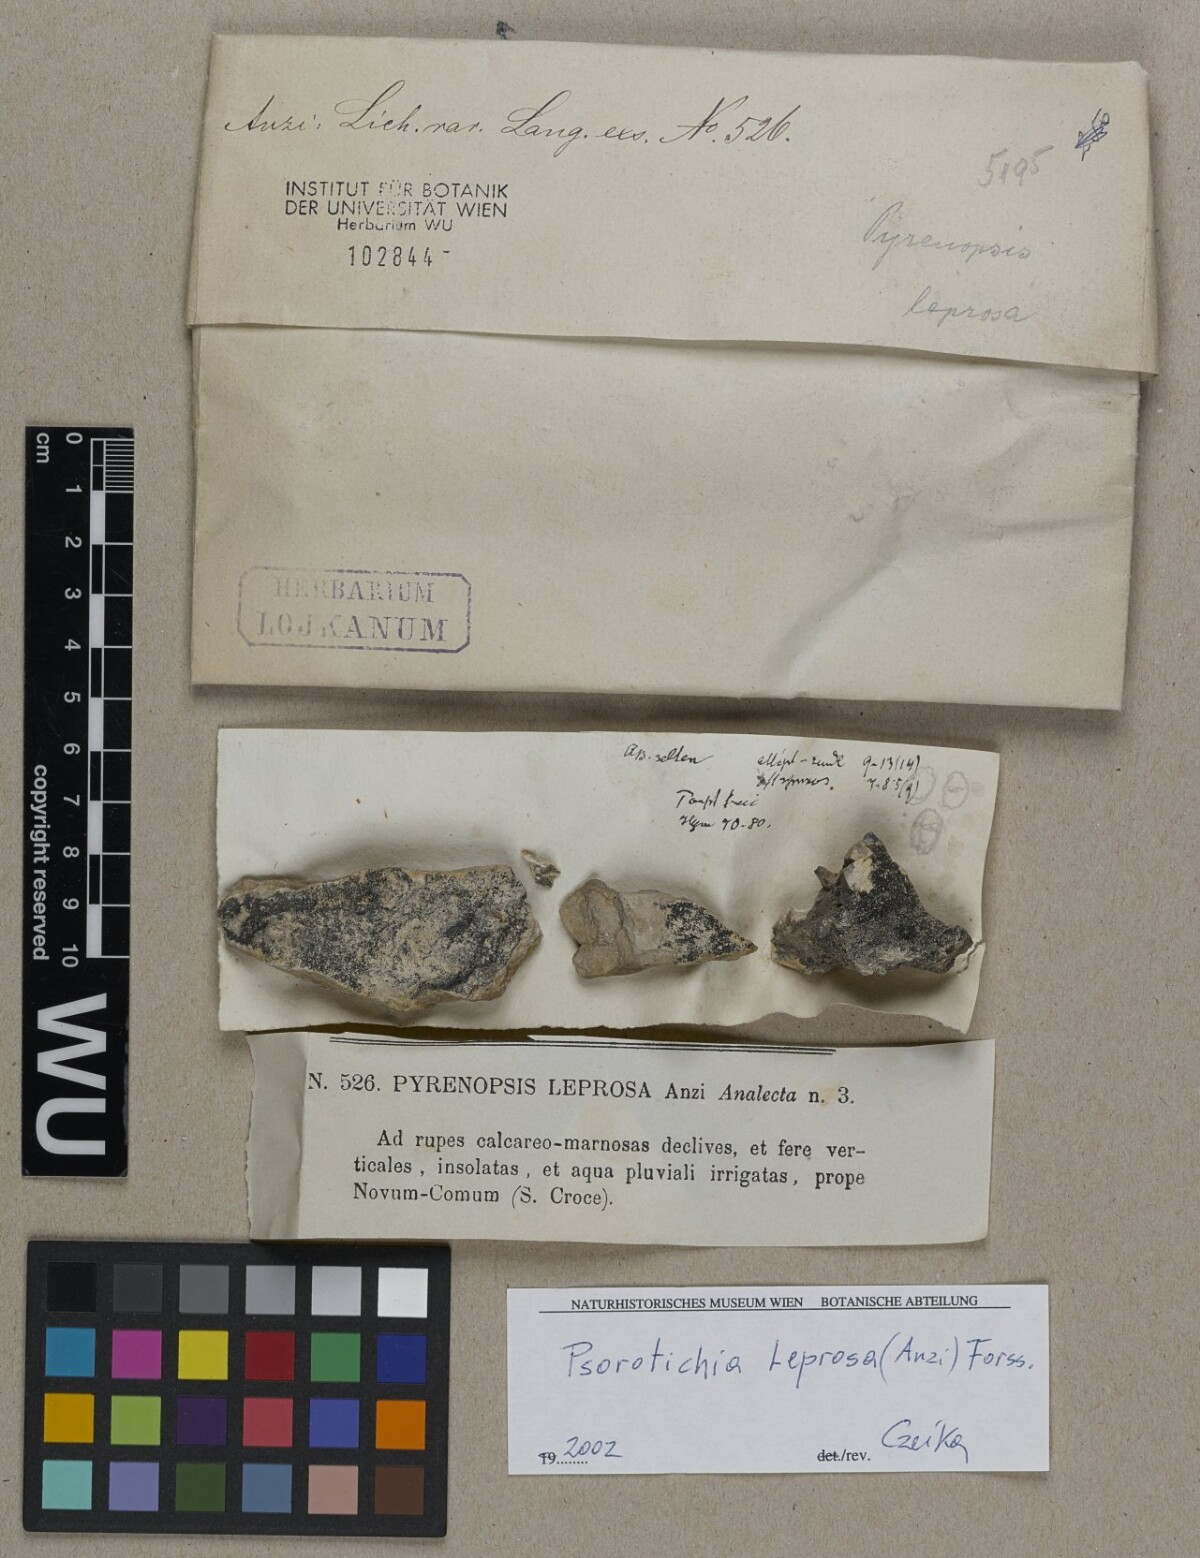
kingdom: Fungi
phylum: Ascomycota
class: Lichinomycetes
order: Lichinales
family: Lichinaceae
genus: Pyrenopsis
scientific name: Pyrenopsis leprosa
